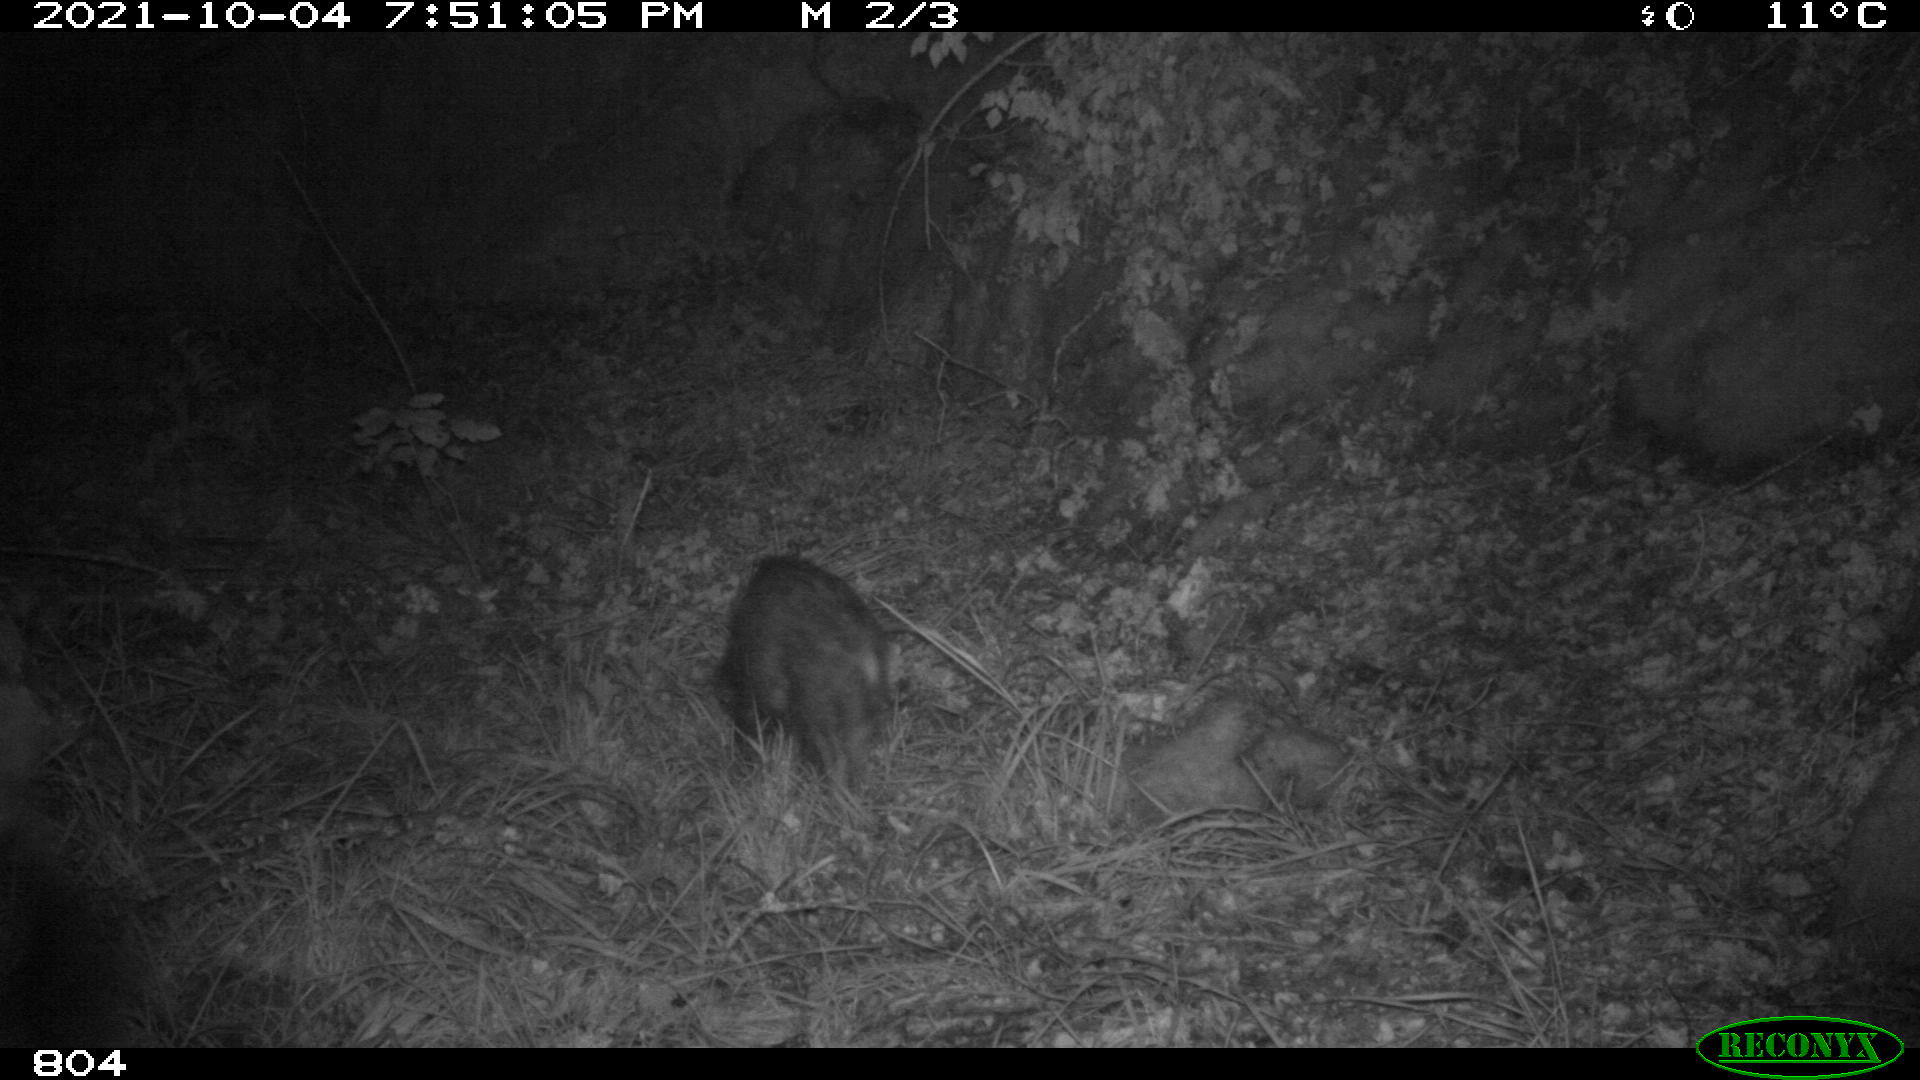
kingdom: Animalia
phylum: Chordata
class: Mammalia
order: Artiodactyla
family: Suidae
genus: Sus
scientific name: Sus scrofa
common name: Wild boar
